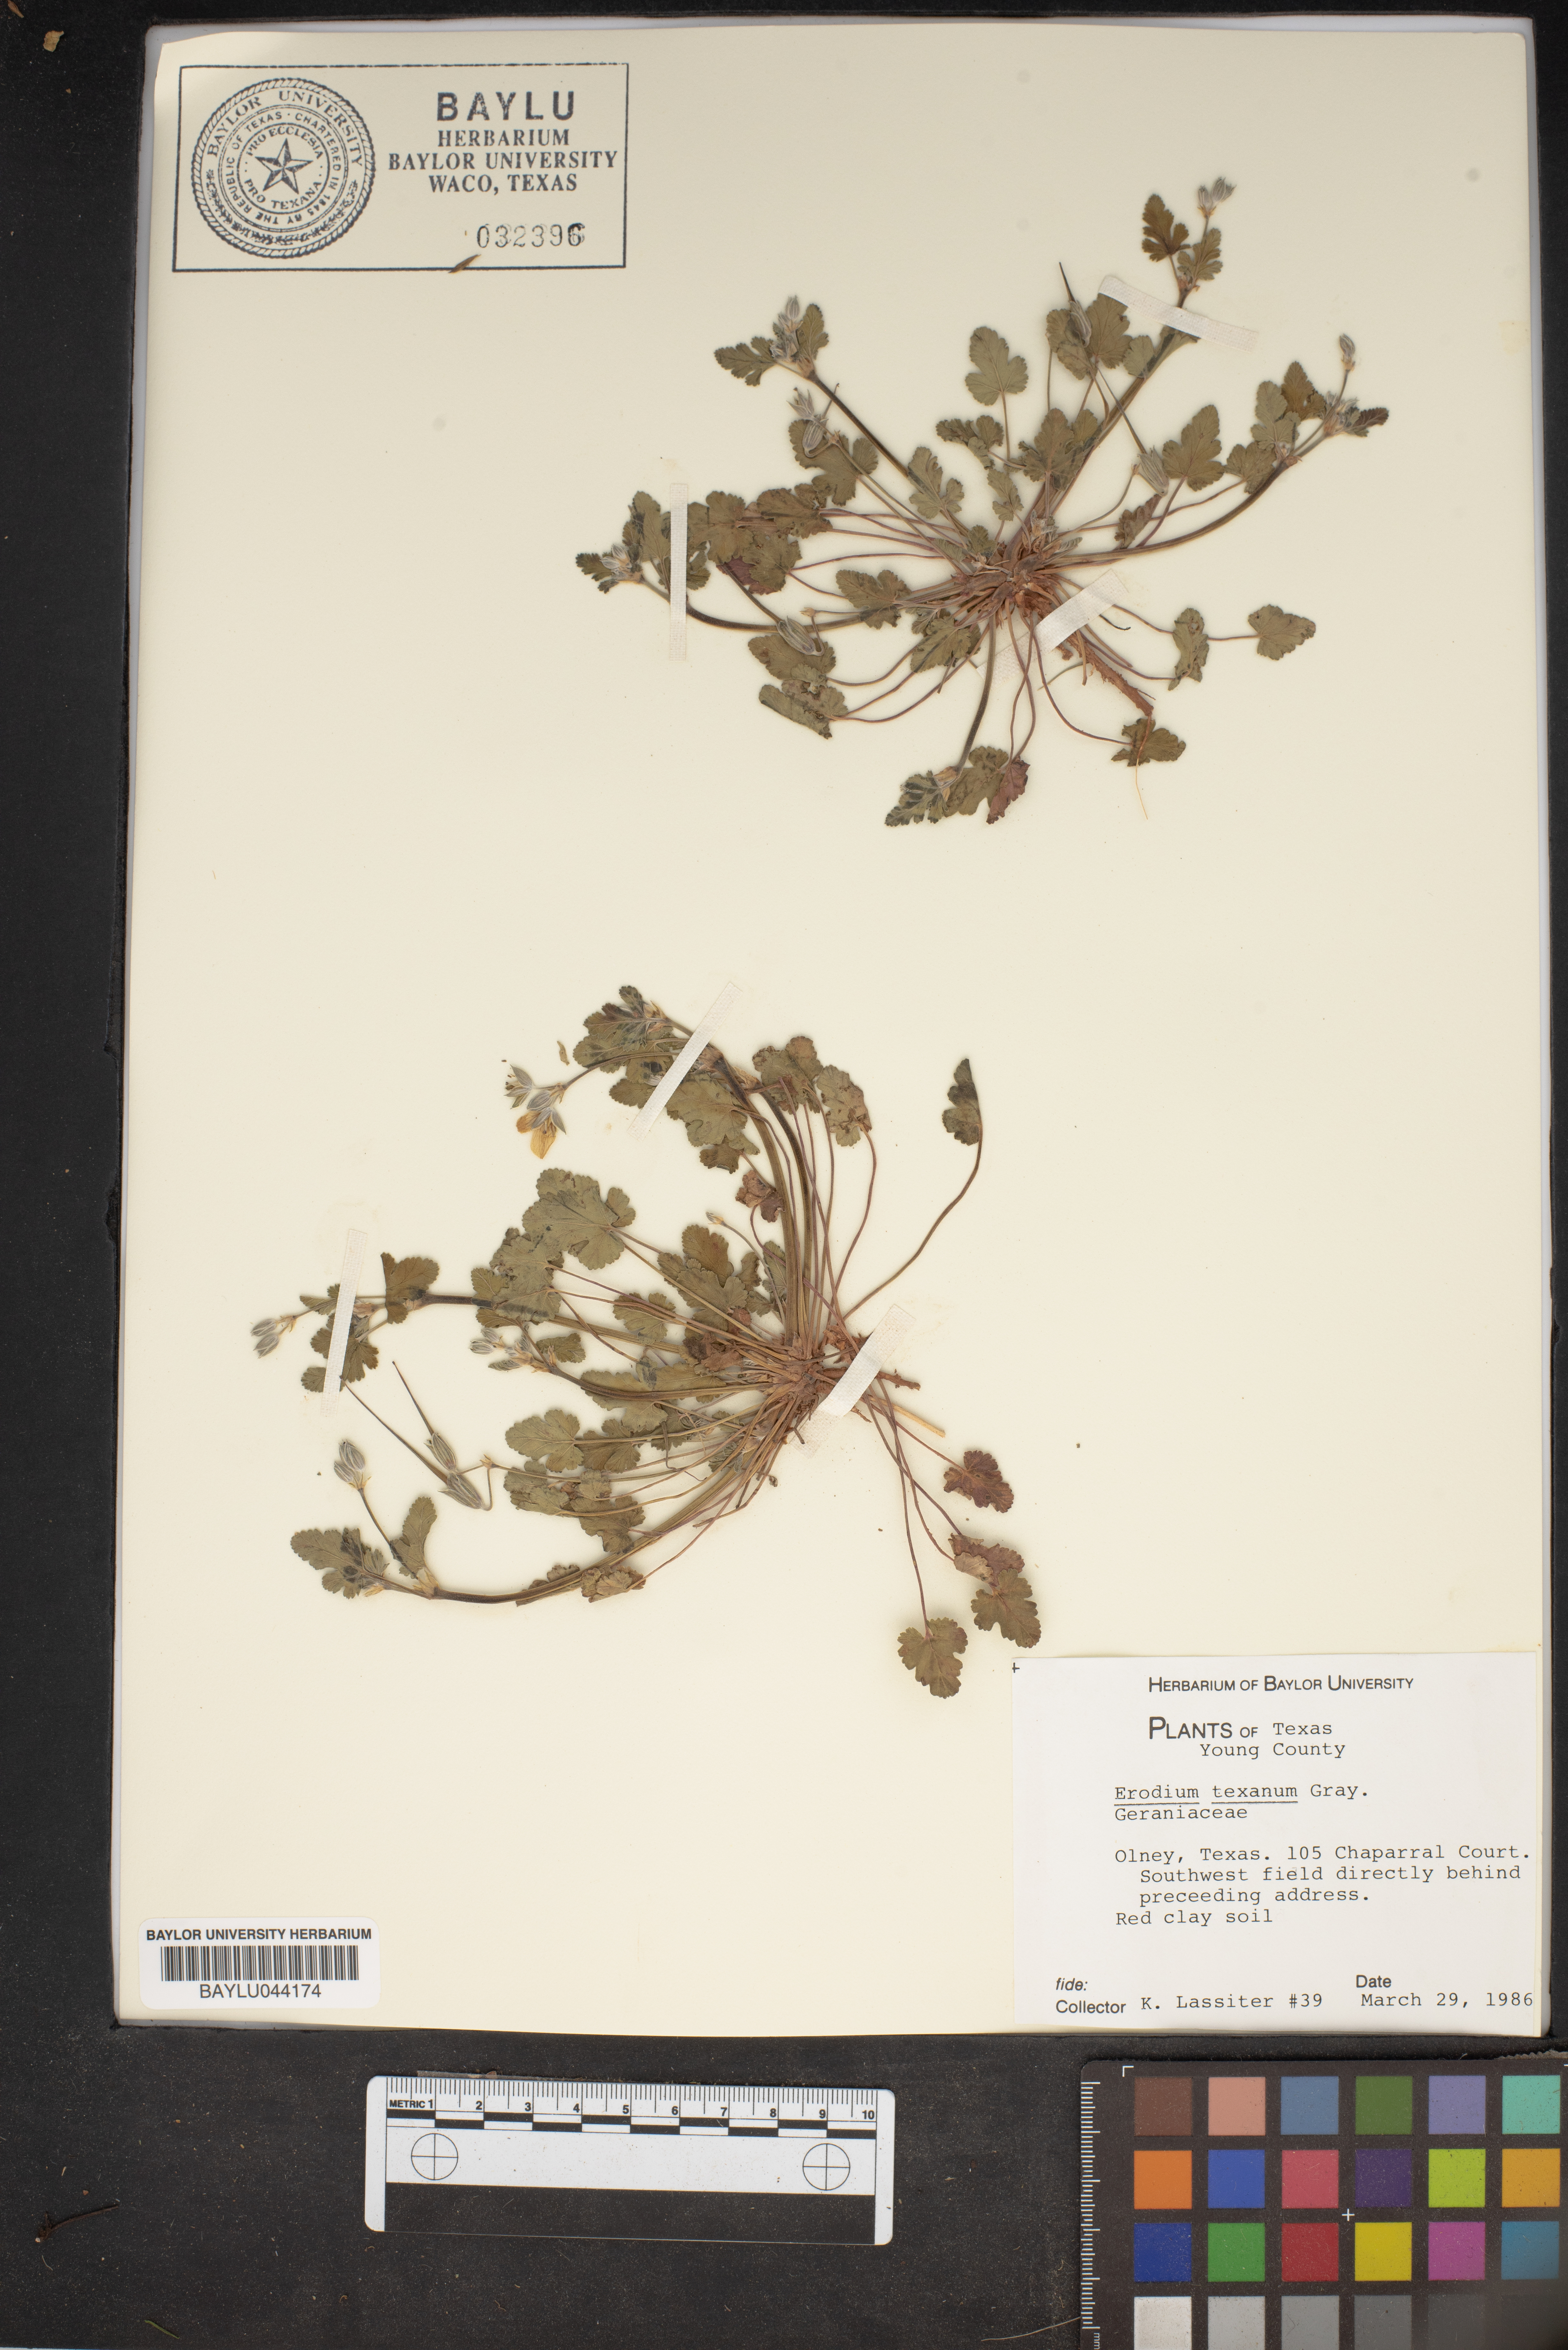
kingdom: Plantae
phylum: Tracheophyta
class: Magnoliopsida
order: Geraniales
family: Geraniaceae
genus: Erodium
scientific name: Erodium texanum
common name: Texas stork's-bill
